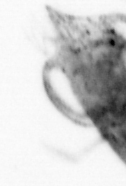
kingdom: Animalia
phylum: Arthropoda
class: Malacostraca
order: Decapoda
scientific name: Decapoda
